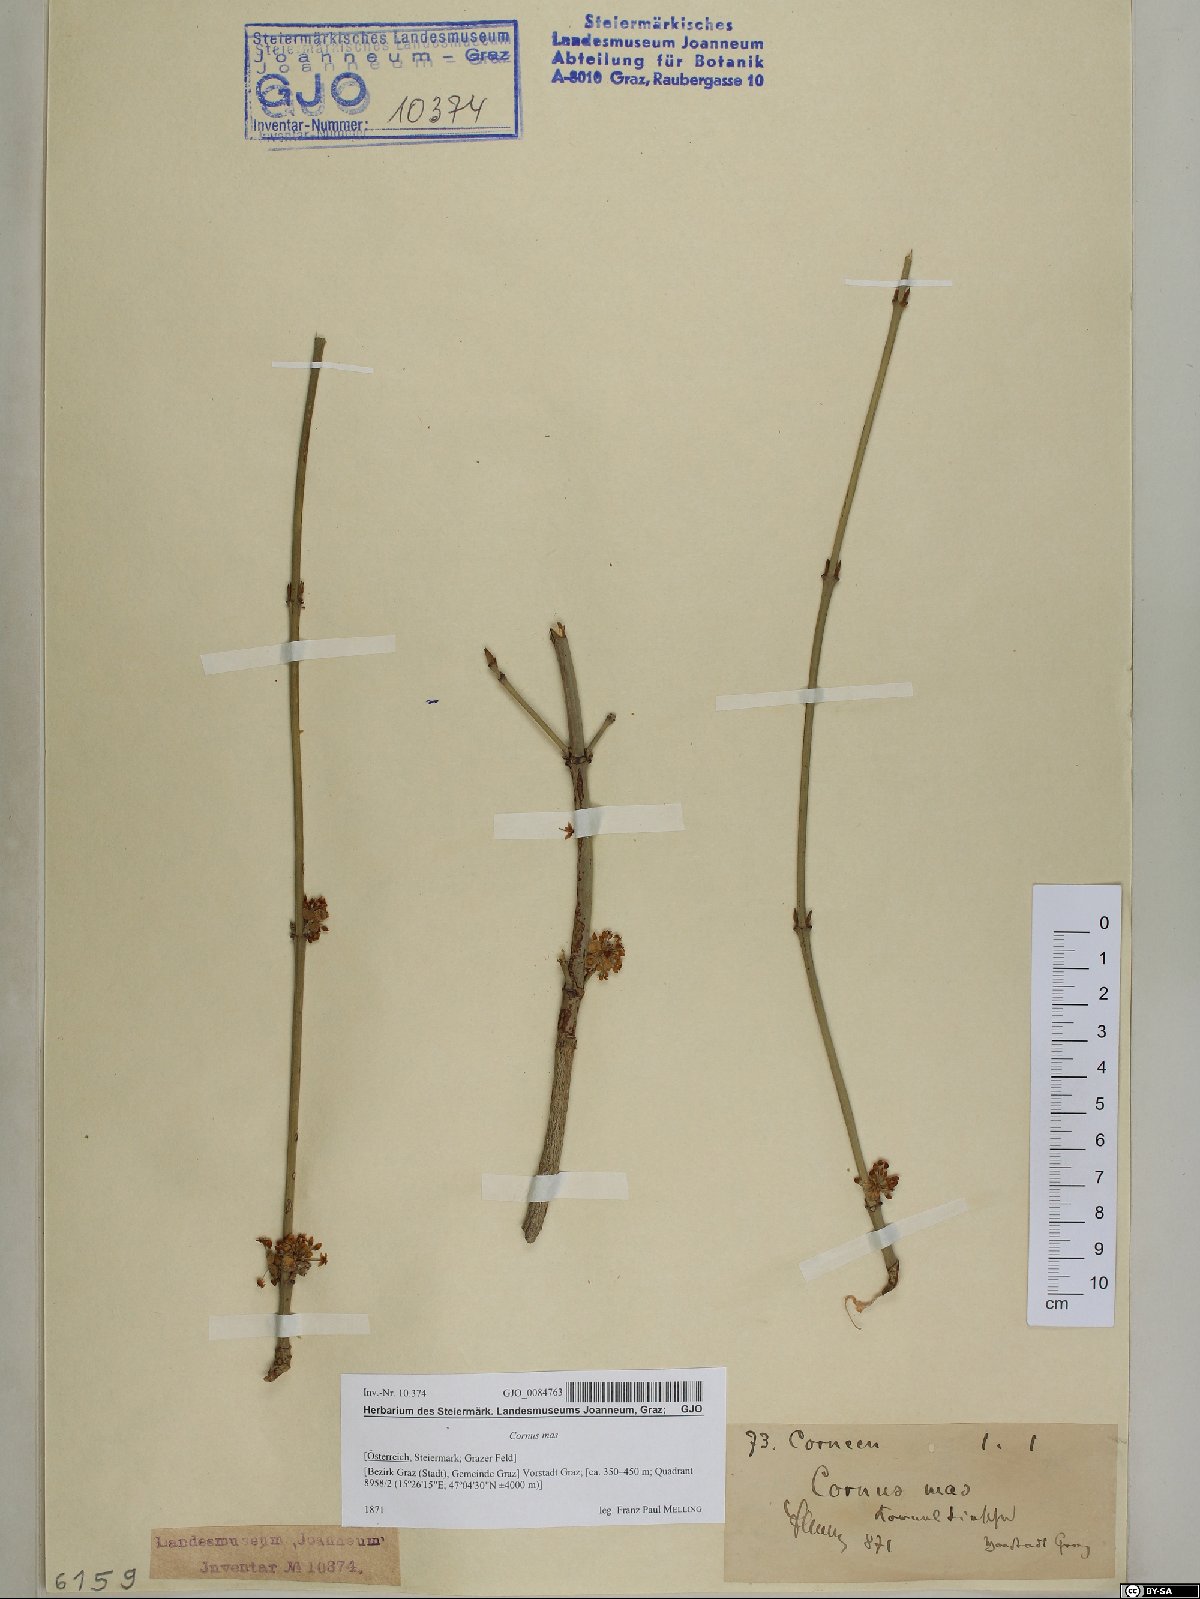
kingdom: Plantae
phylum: Tracheophyta
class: Magnoliopsida
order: Cornales
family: Cornaceae
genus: Cornus
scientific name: Cornus mas
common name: Cornelian-cherry
